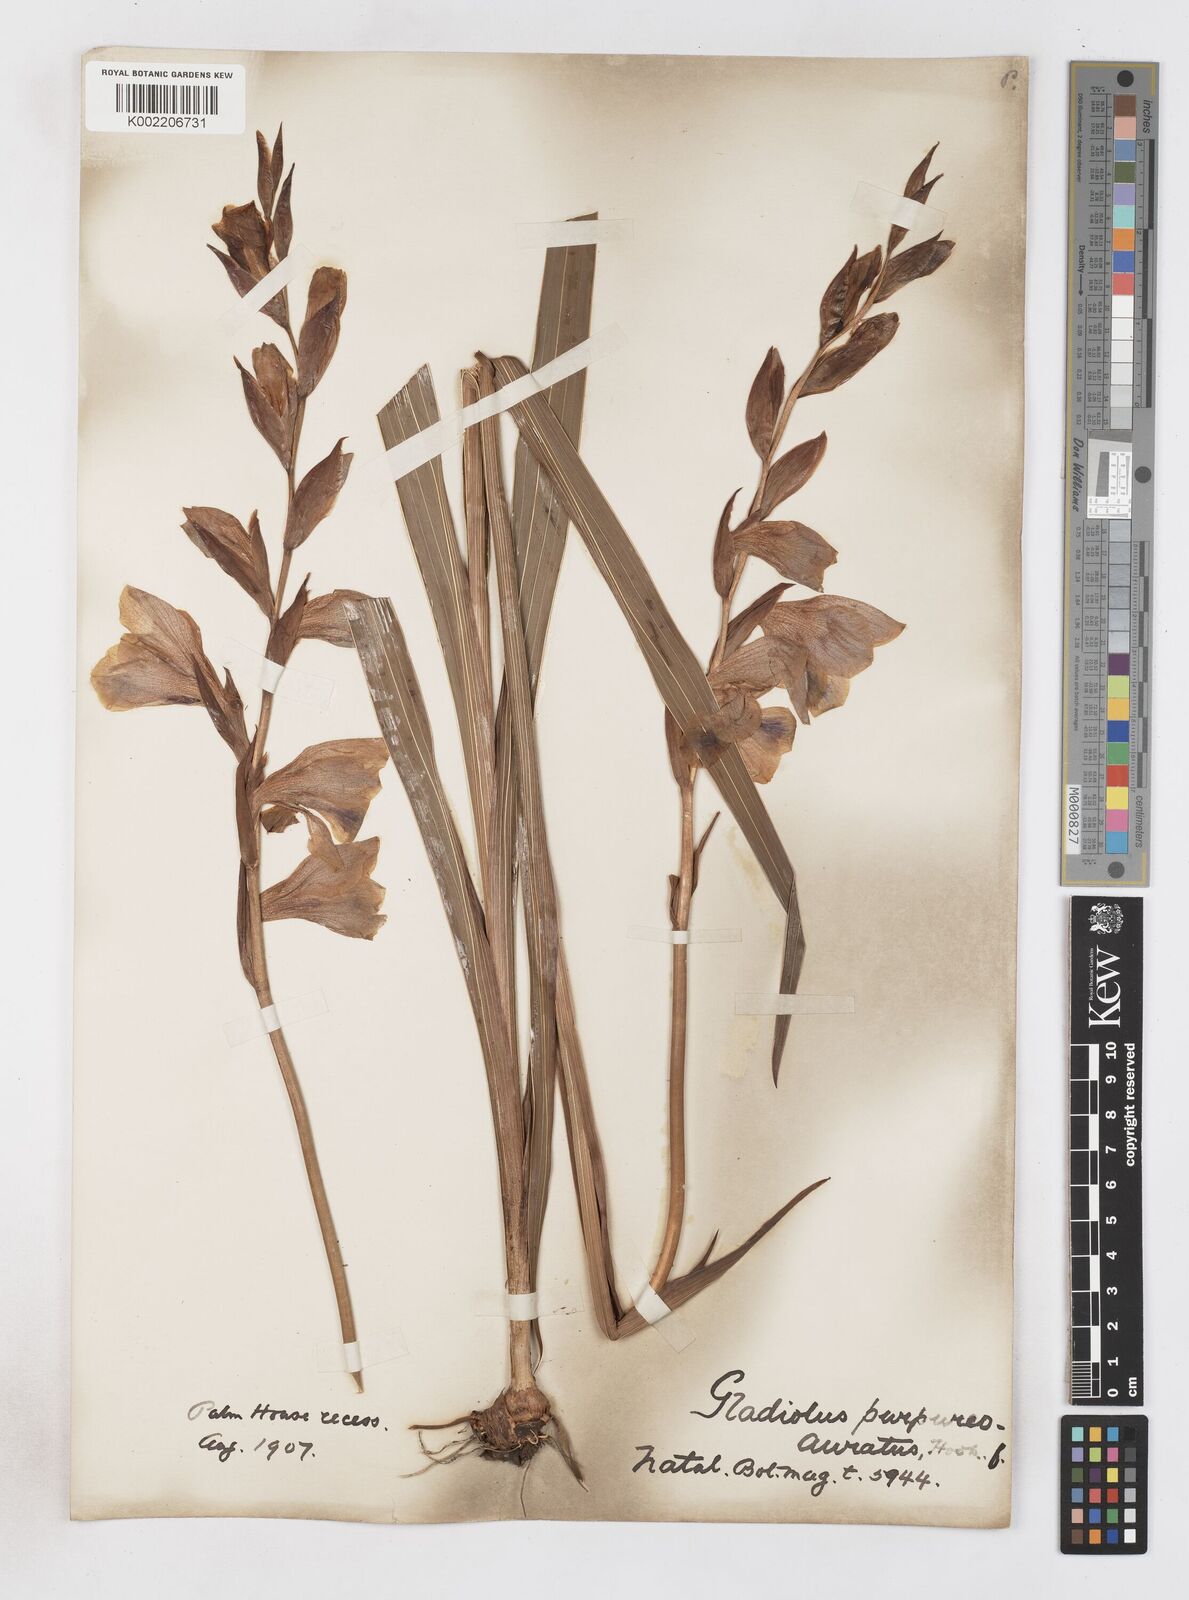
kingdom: Plantae
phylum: Tracheophyta
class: Liliopsida
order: Asparagales
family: Iridaceae
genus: Gladiolus
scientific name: Gladiolus papilio
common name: Goldblotch gladiolus
